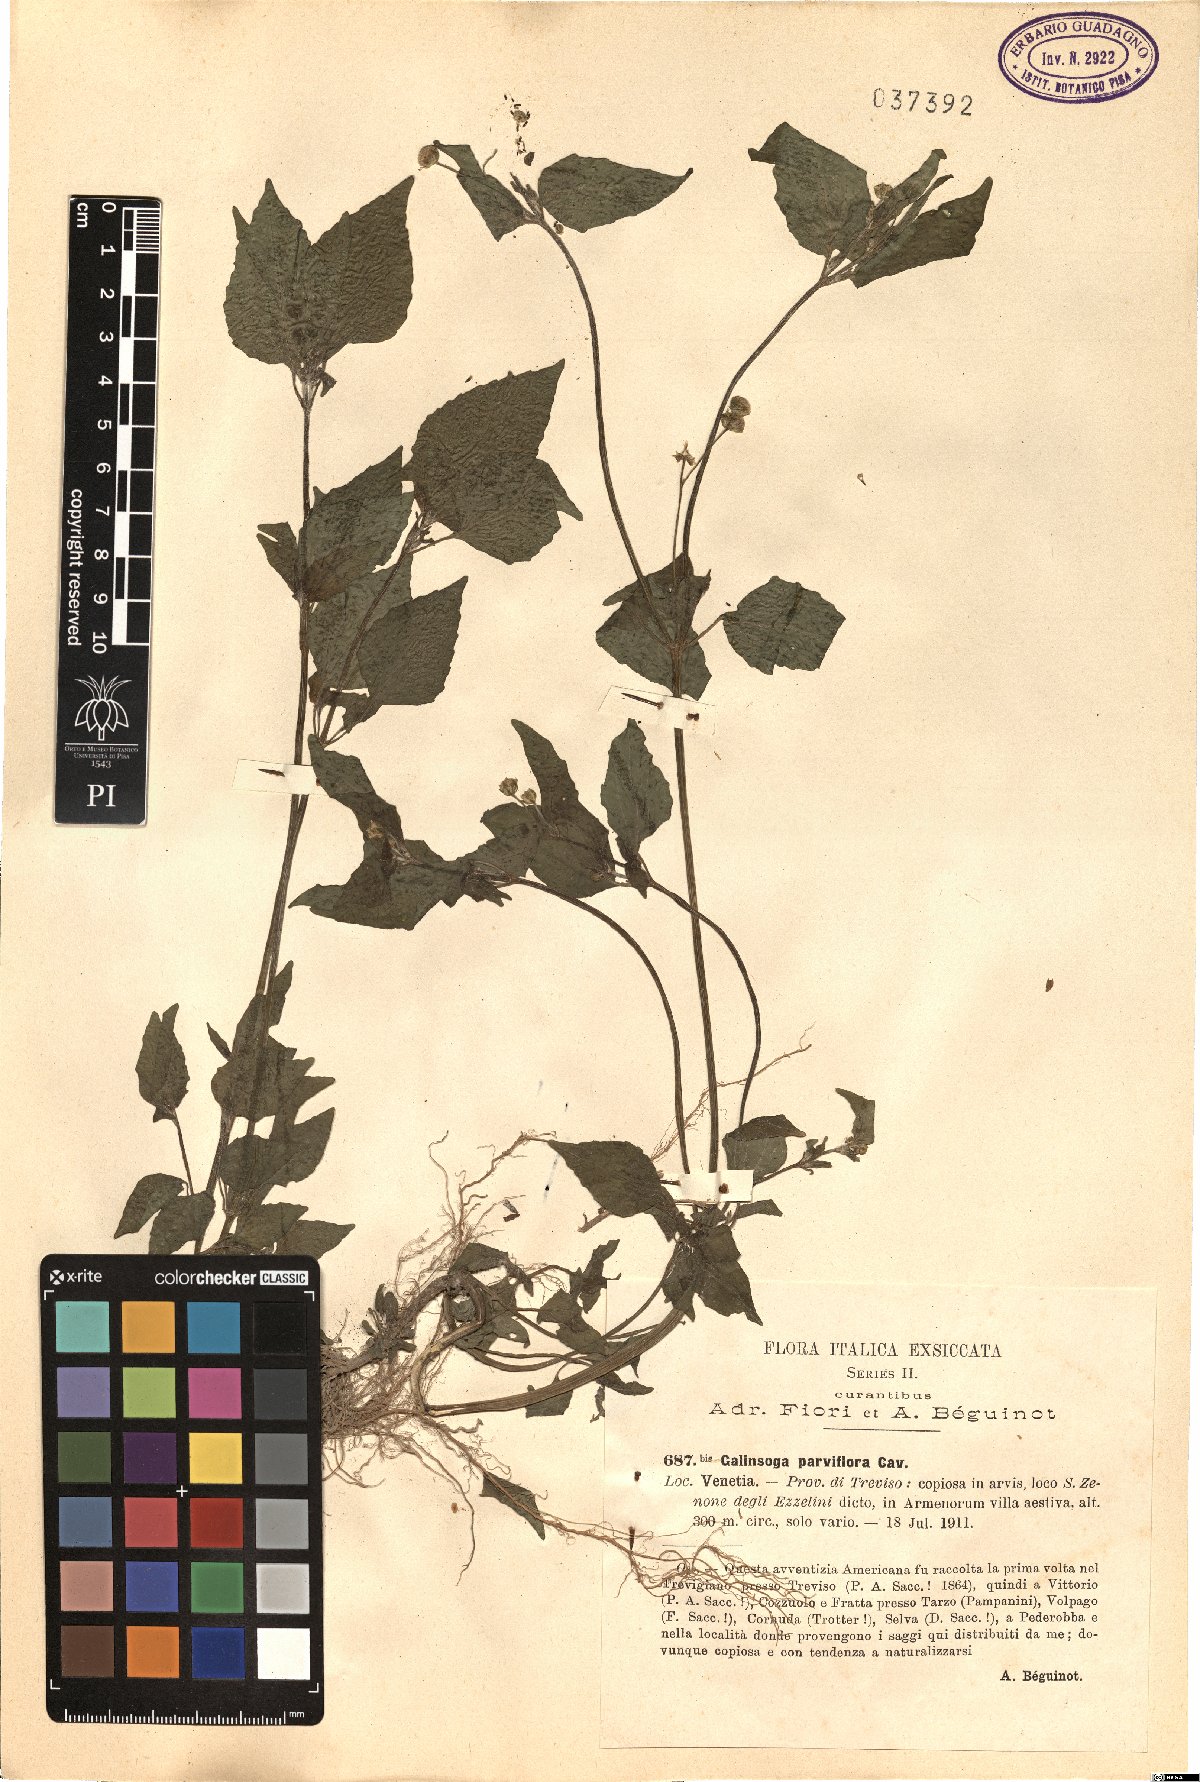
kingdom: Plantae
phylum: Tracheophyta
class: Magnoliopsida
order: Asterales
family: Asteraceae
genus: Galinsoga
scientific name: Galinsoga parviflora
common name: Gallant soldier
